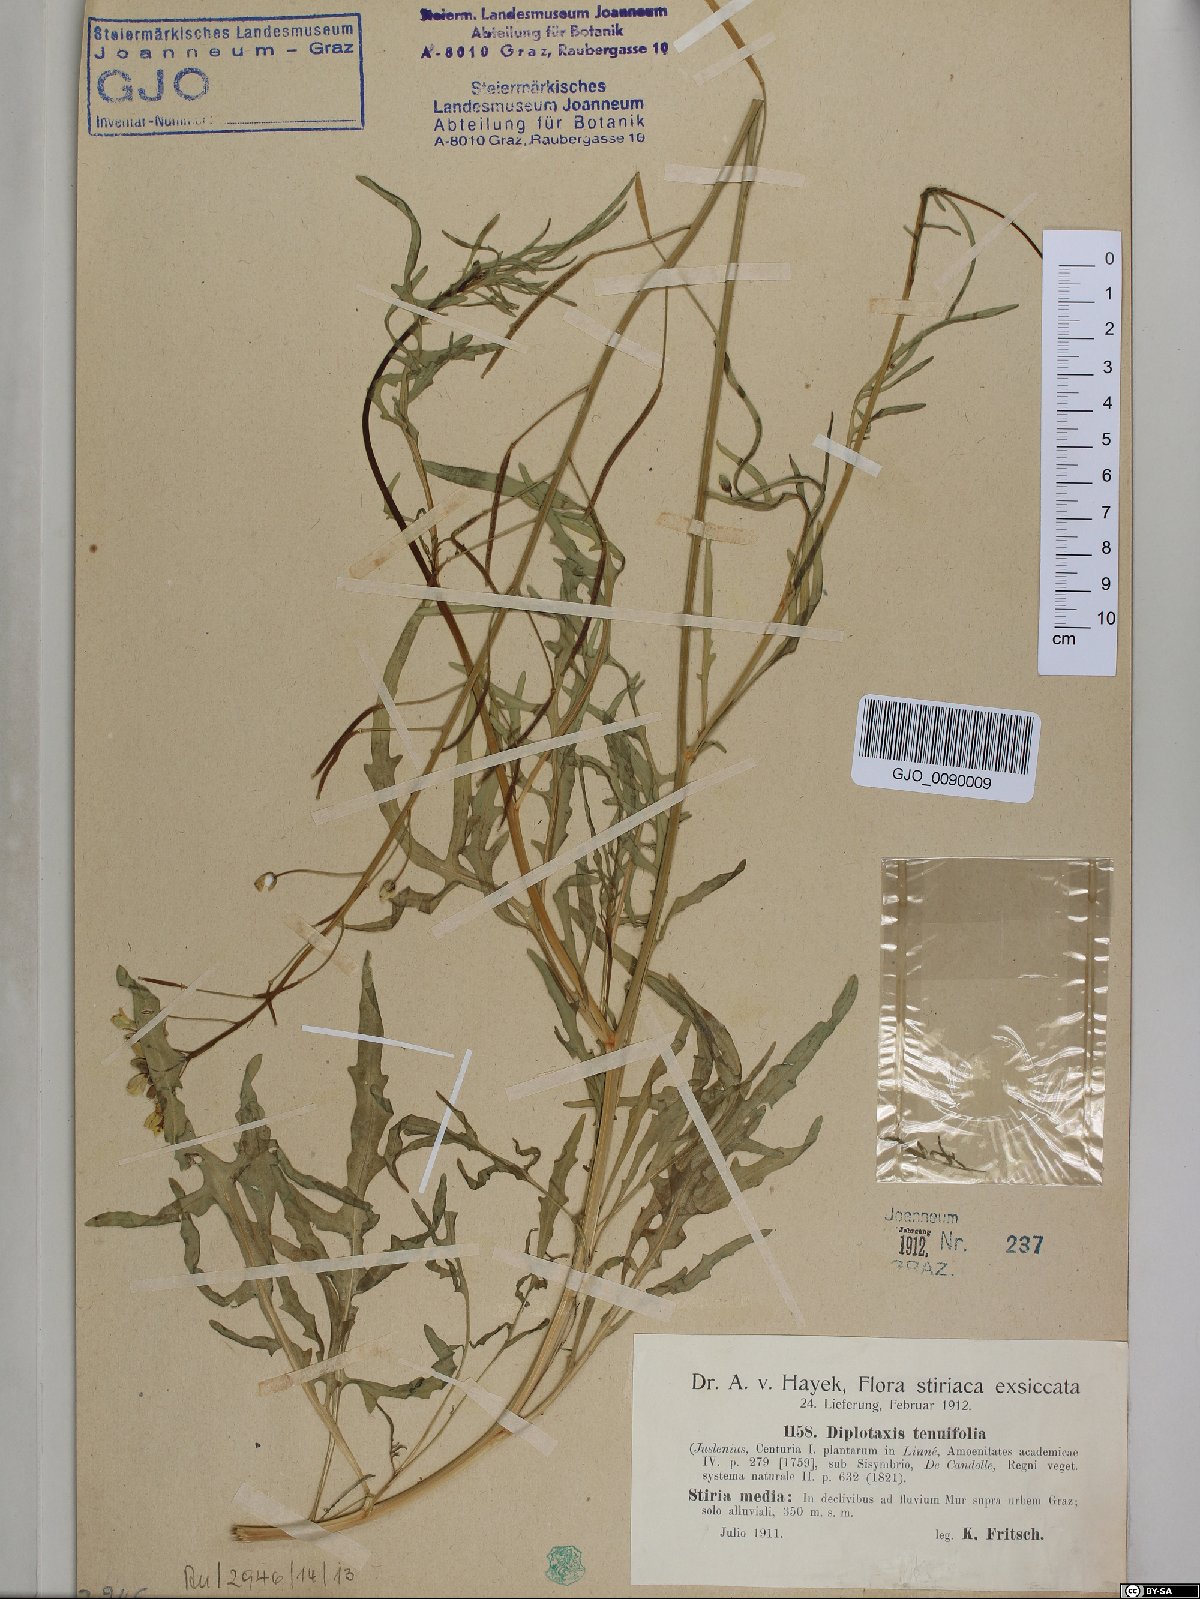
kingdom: Plantae
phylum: Tracheophyta
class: Magnoliopsida
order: Brassicales
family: Brassicaceae
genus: Diplotaxis
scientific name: Diplotaxis tenuifolia
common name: Perennial wall-rocket
